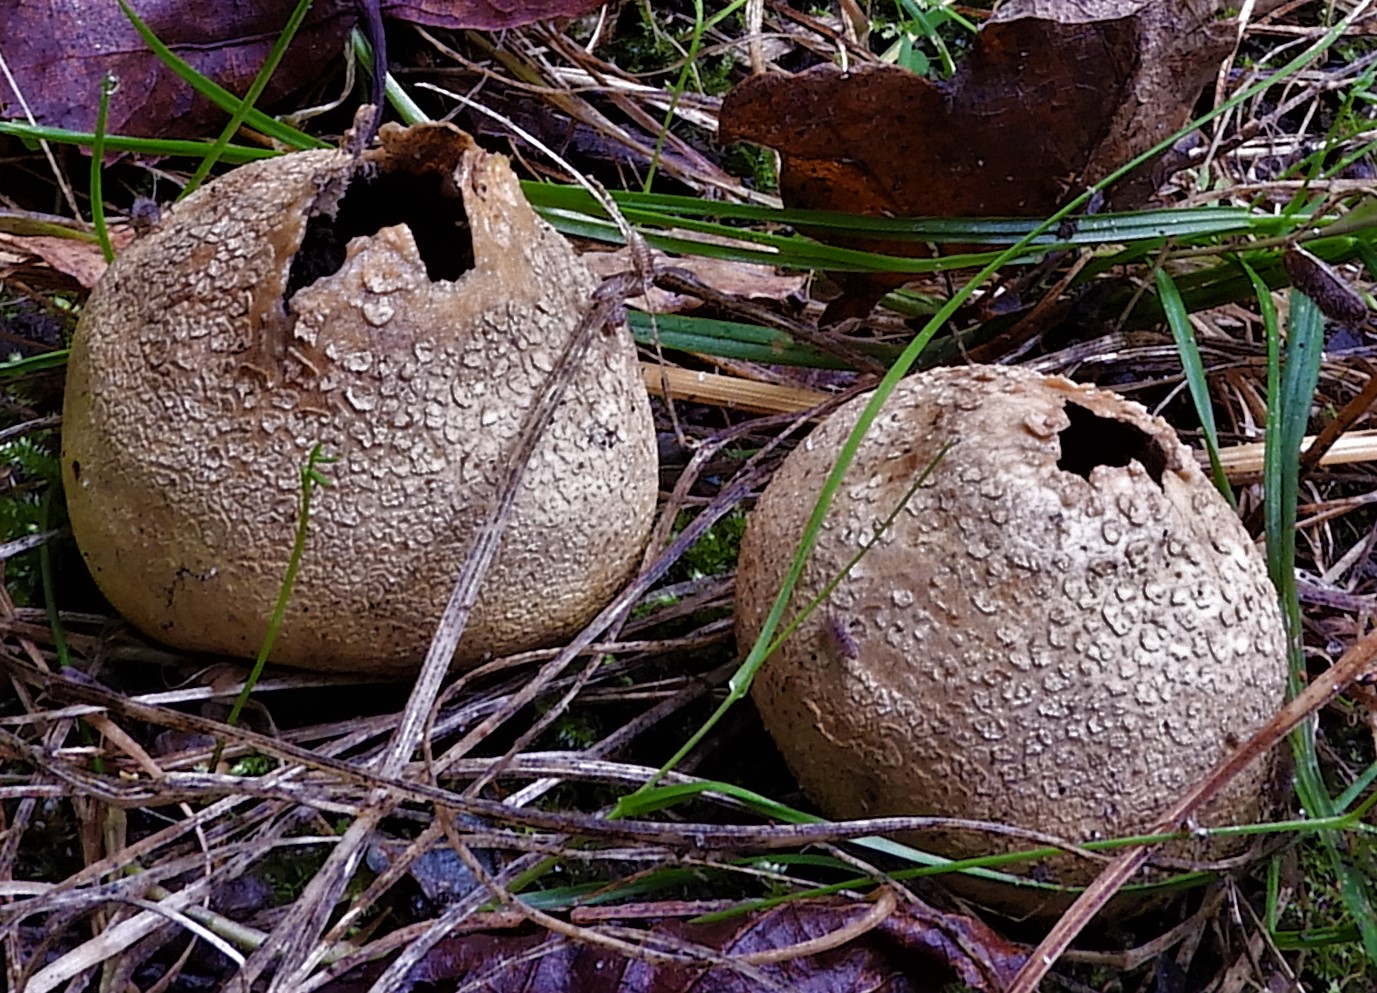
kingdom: Fungi
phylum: Basidiomycota
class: Agaricomycetes
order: Boletales
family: Sclerodermataceae
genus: Scleroderma
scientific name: Scleroderma citrinum
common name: almindelig bruskbold
